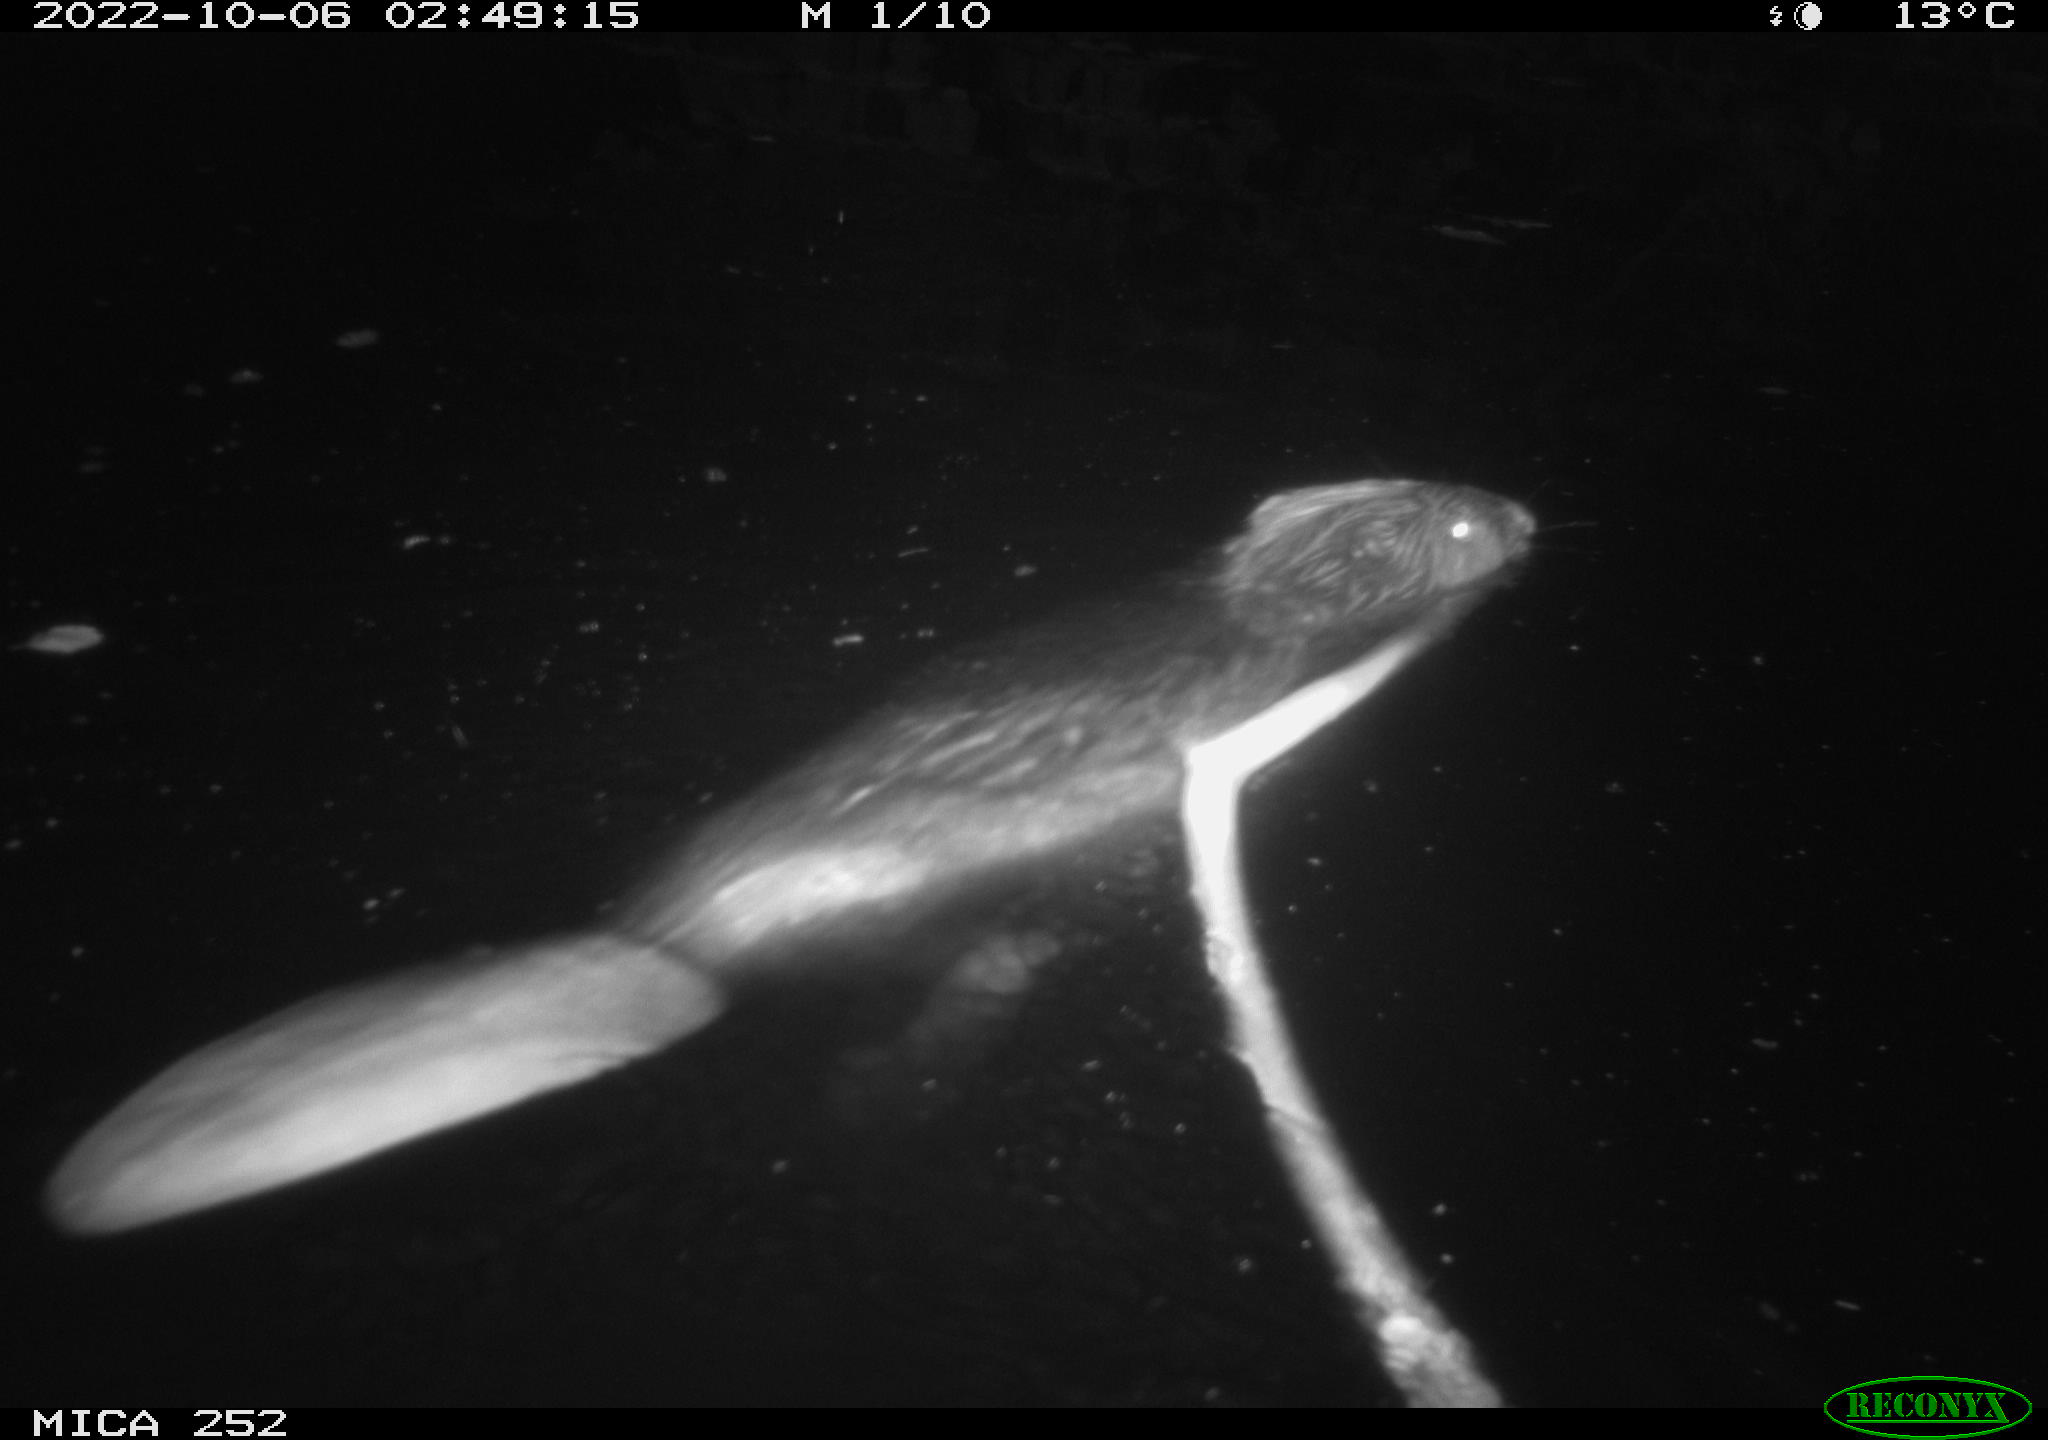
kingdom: Animalia
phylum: Chordata
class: Mammalia
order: Rodentia
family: Castoridae
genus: Castor
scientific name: Castor fiber
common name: Eurasian beaver
